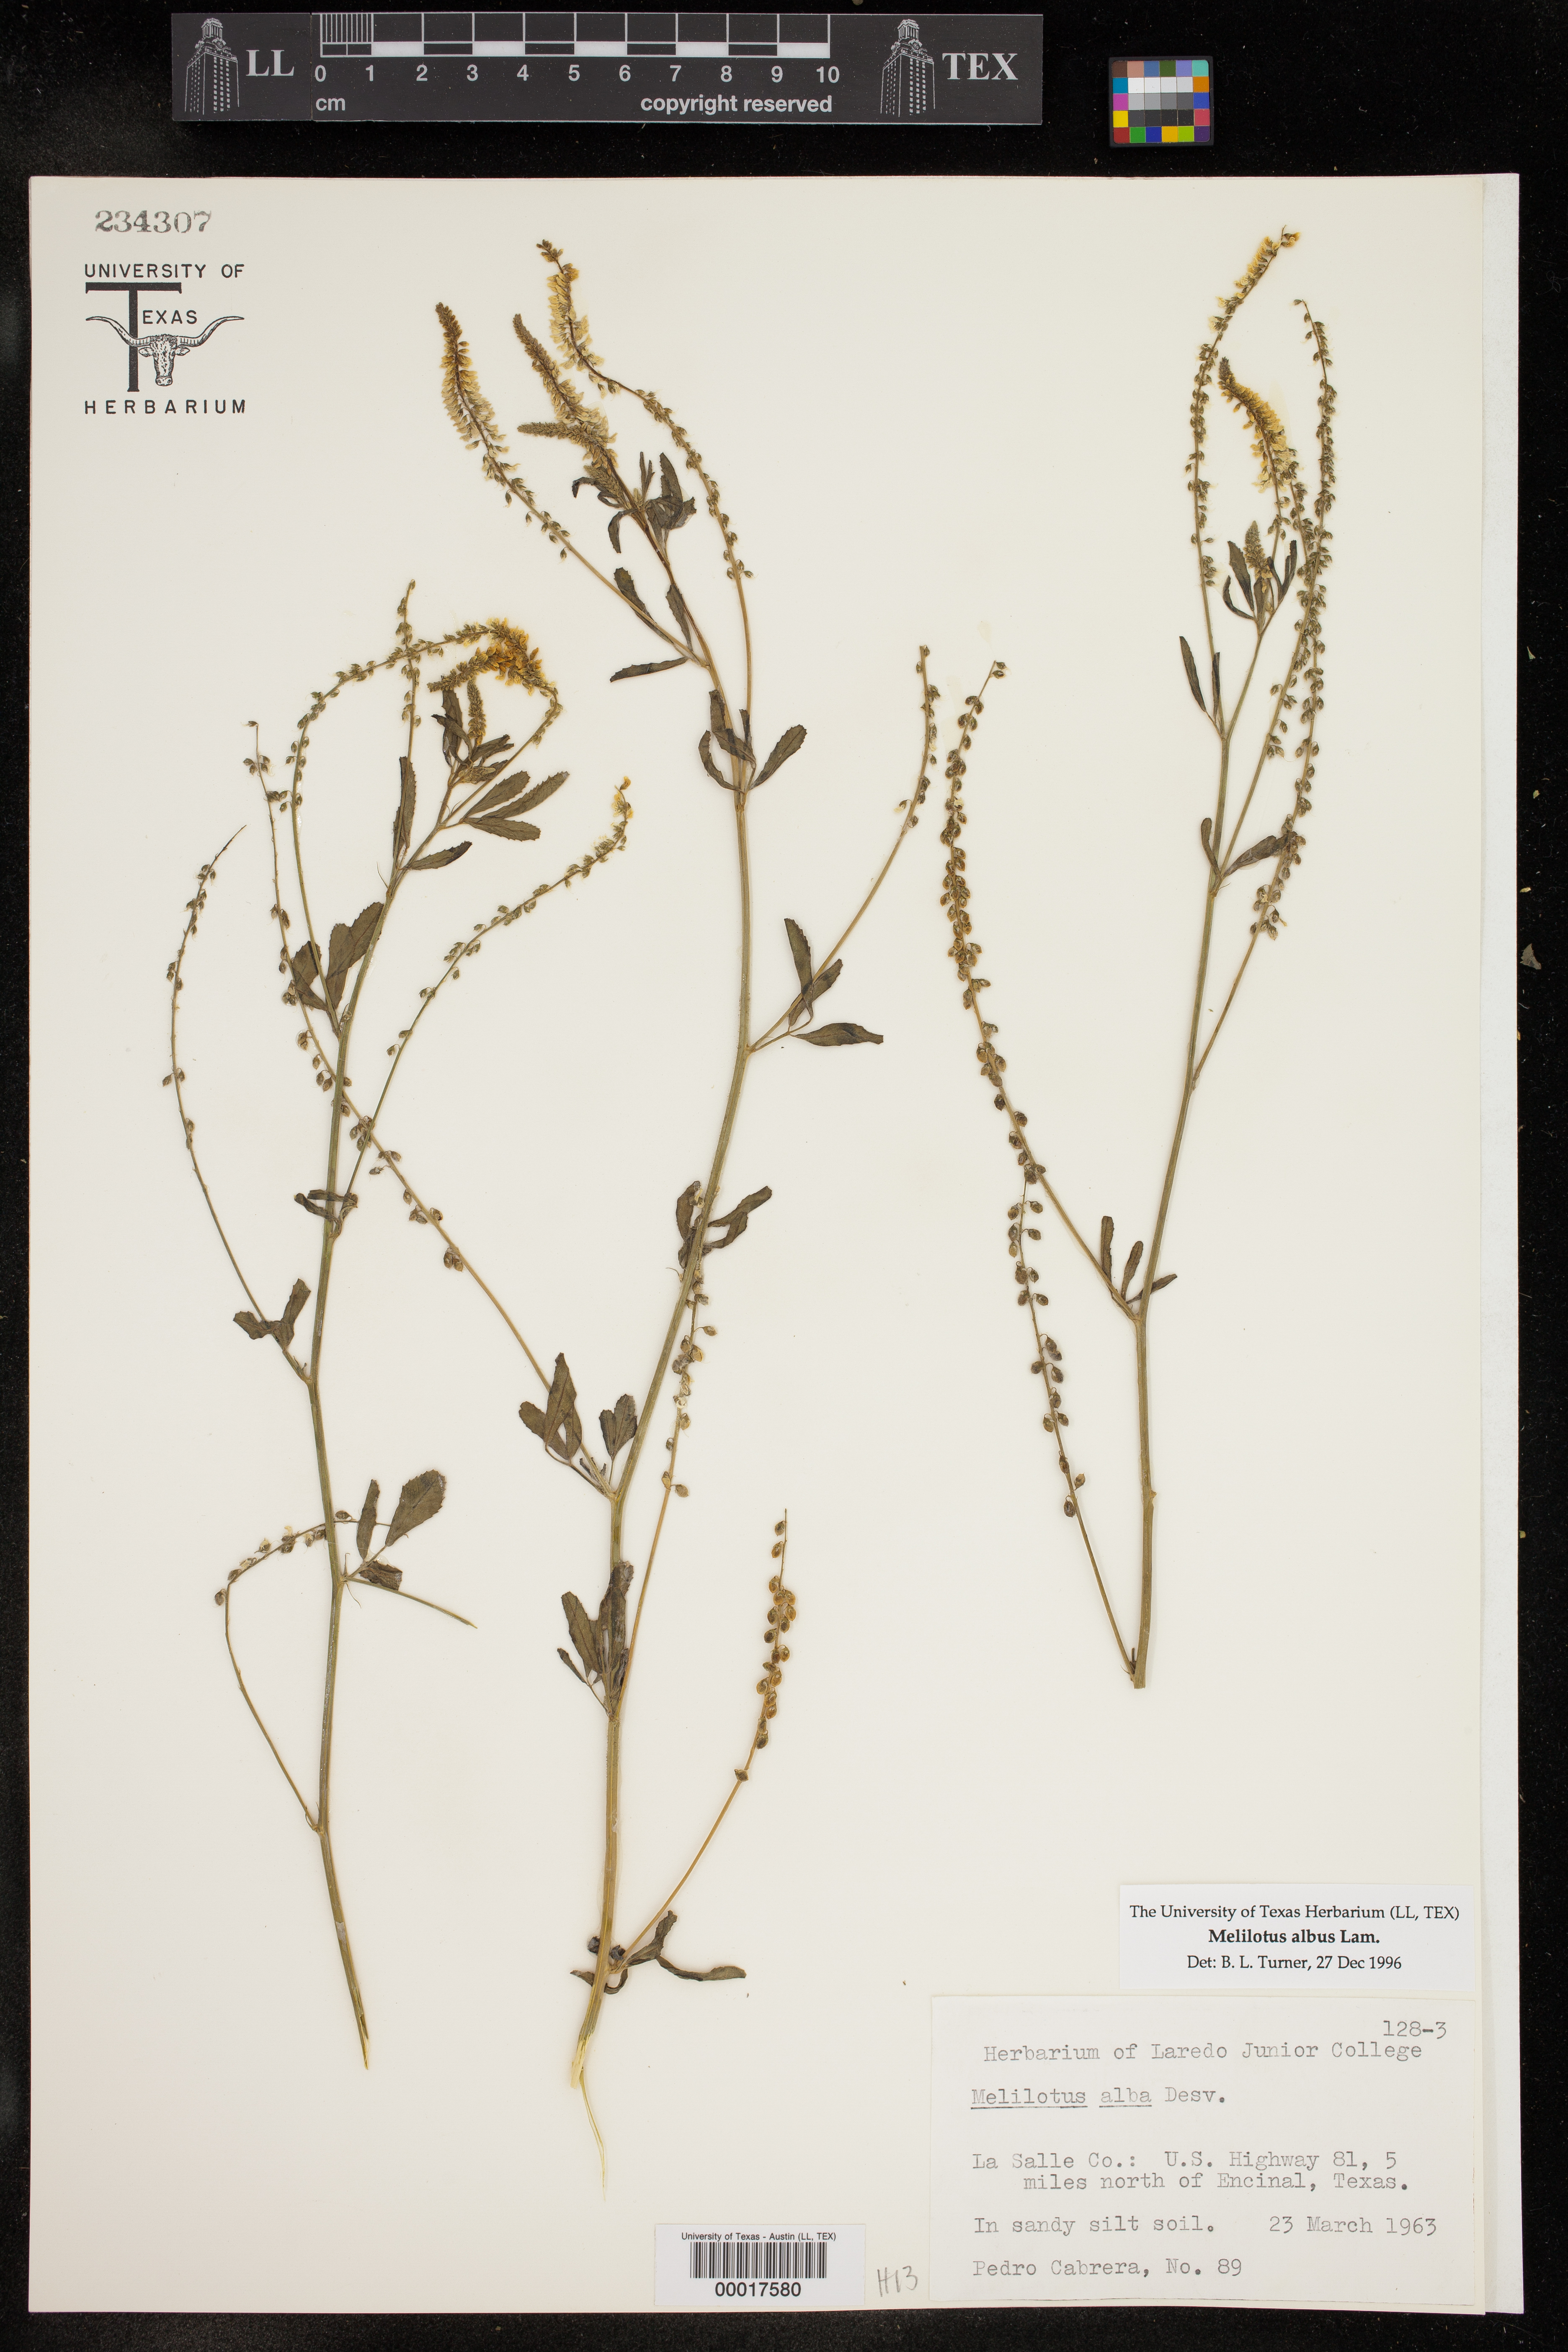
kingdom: Plantae
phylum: Tracheophyta
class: Magnoliopsida
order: Fabales
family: Fabaceae
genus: Melilotus
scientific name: Melilotus albus
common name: White melilot
